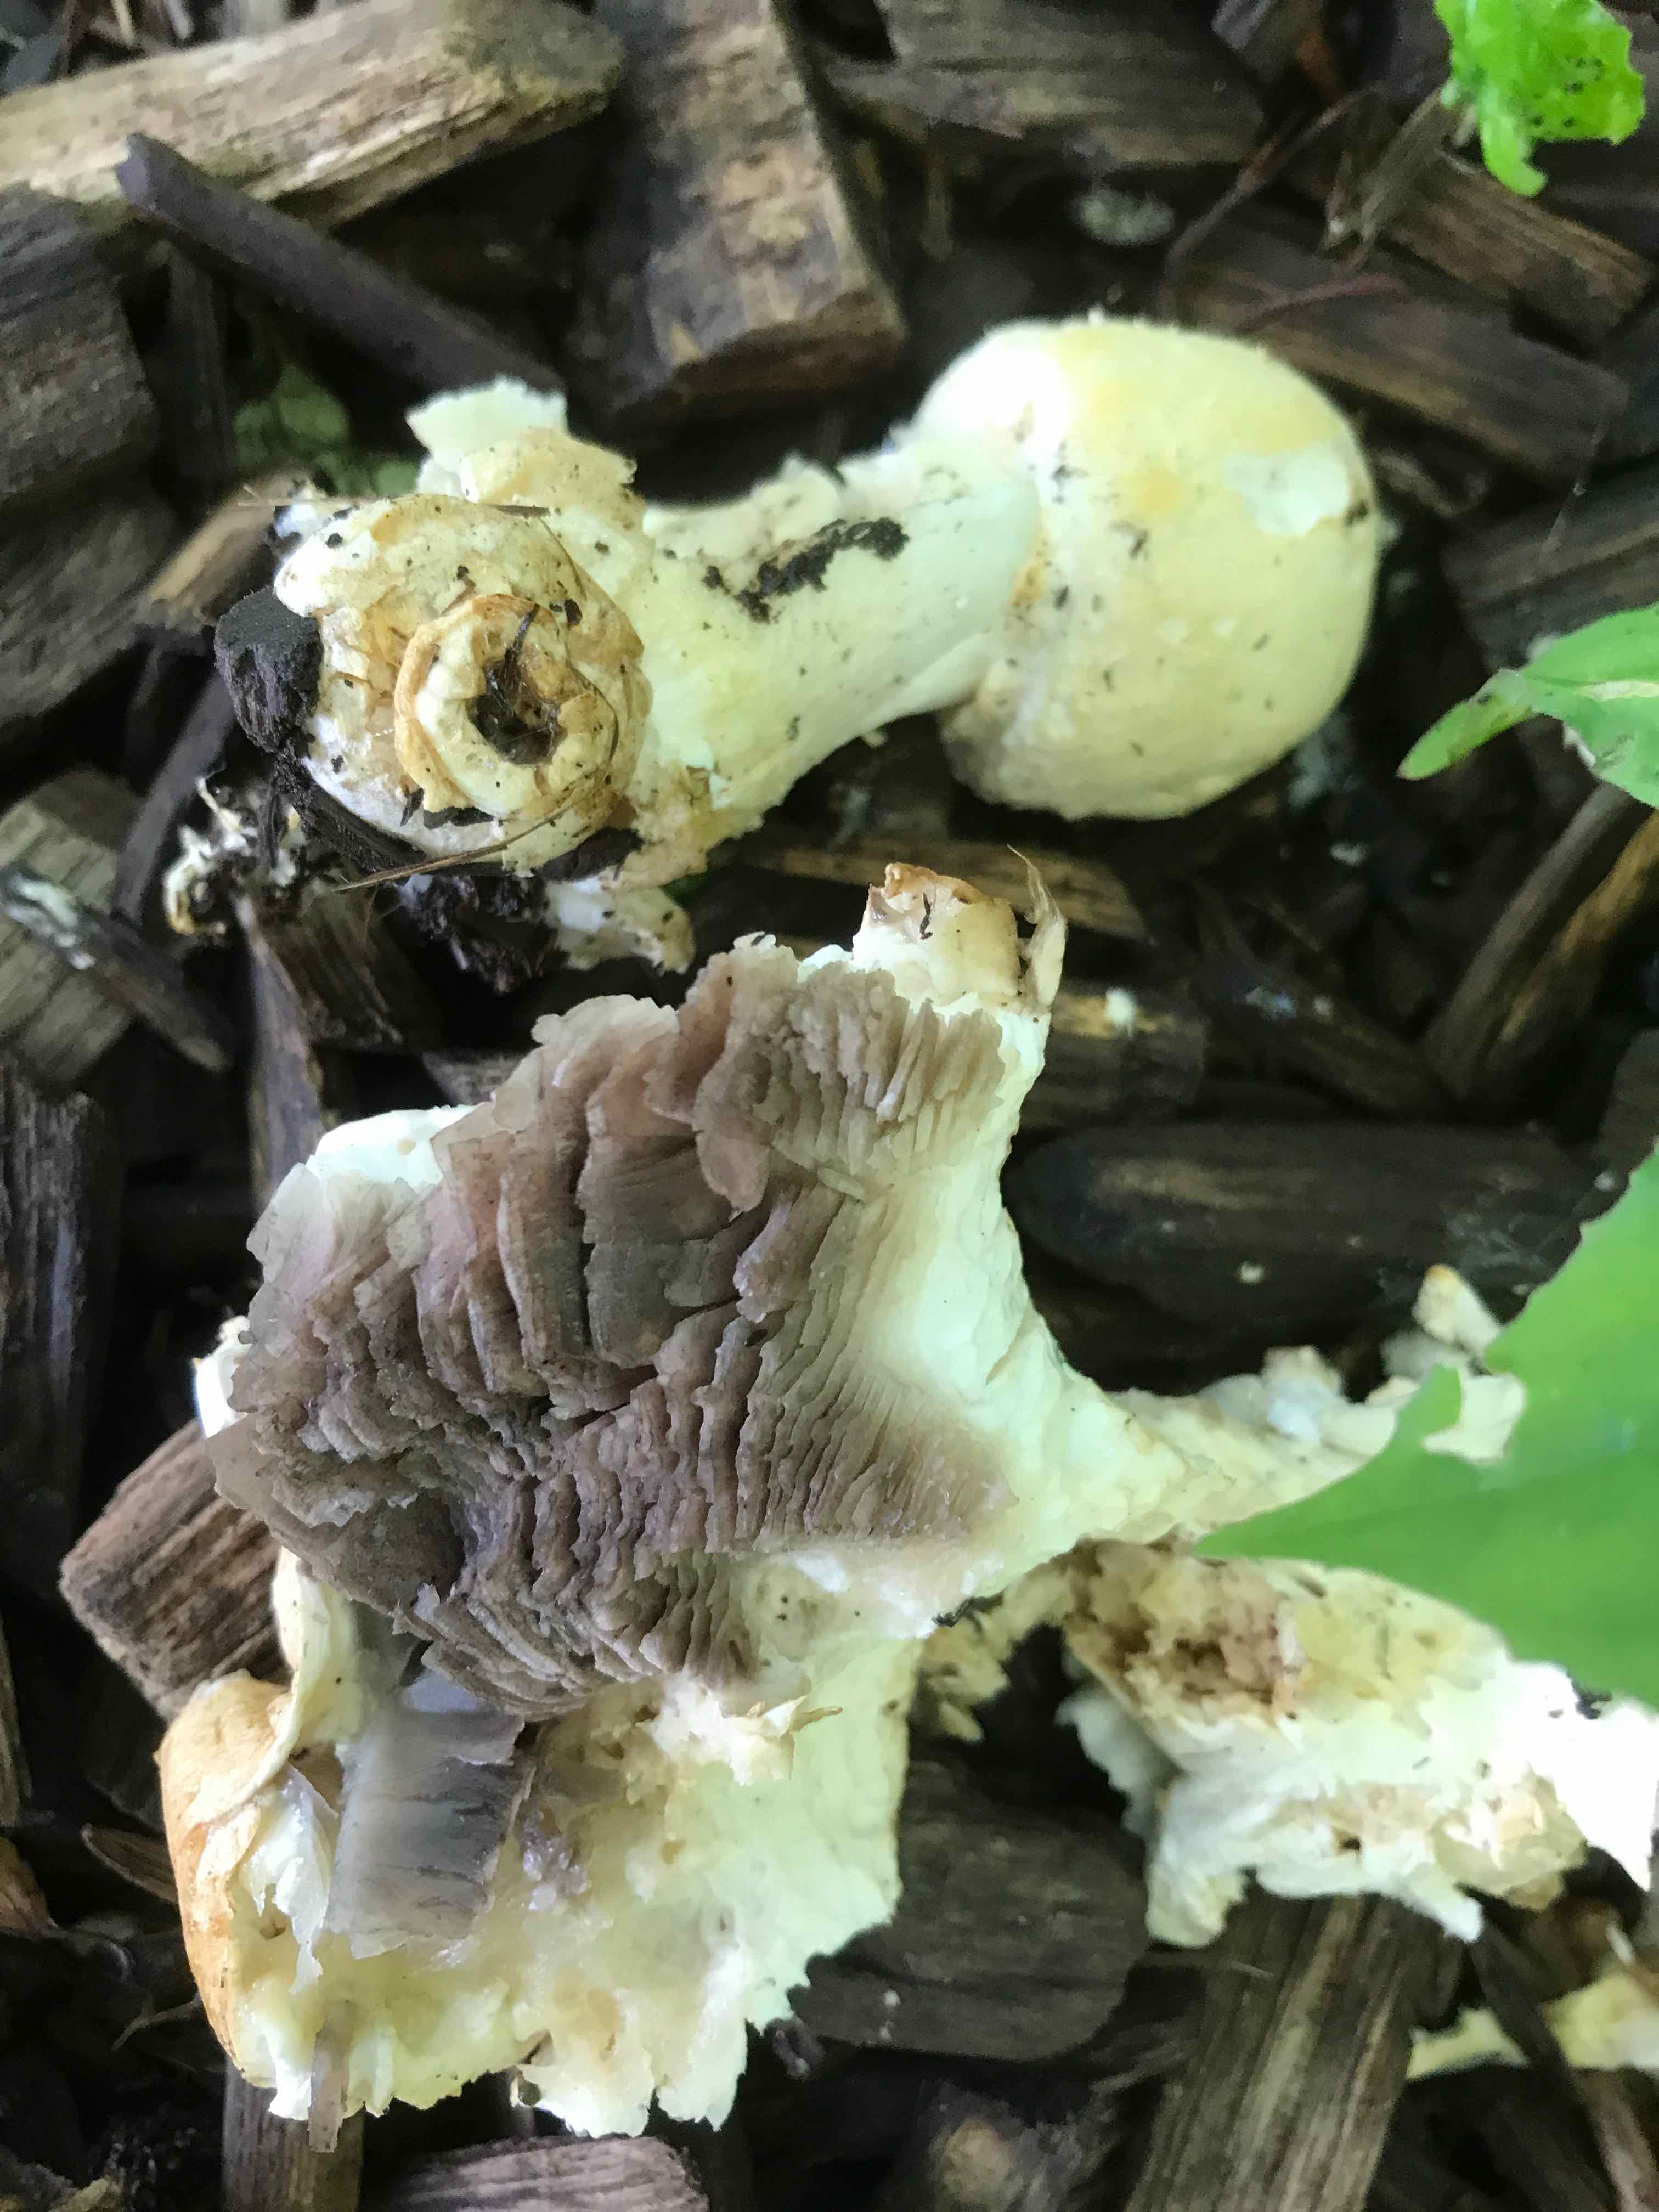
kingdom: Fungi
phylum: Basidiomycota
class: Agaricomycetes
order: Agaricales
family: Agaricaceae
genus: Agaricus
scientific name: Agaricus arvensis
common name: ager-champignon
